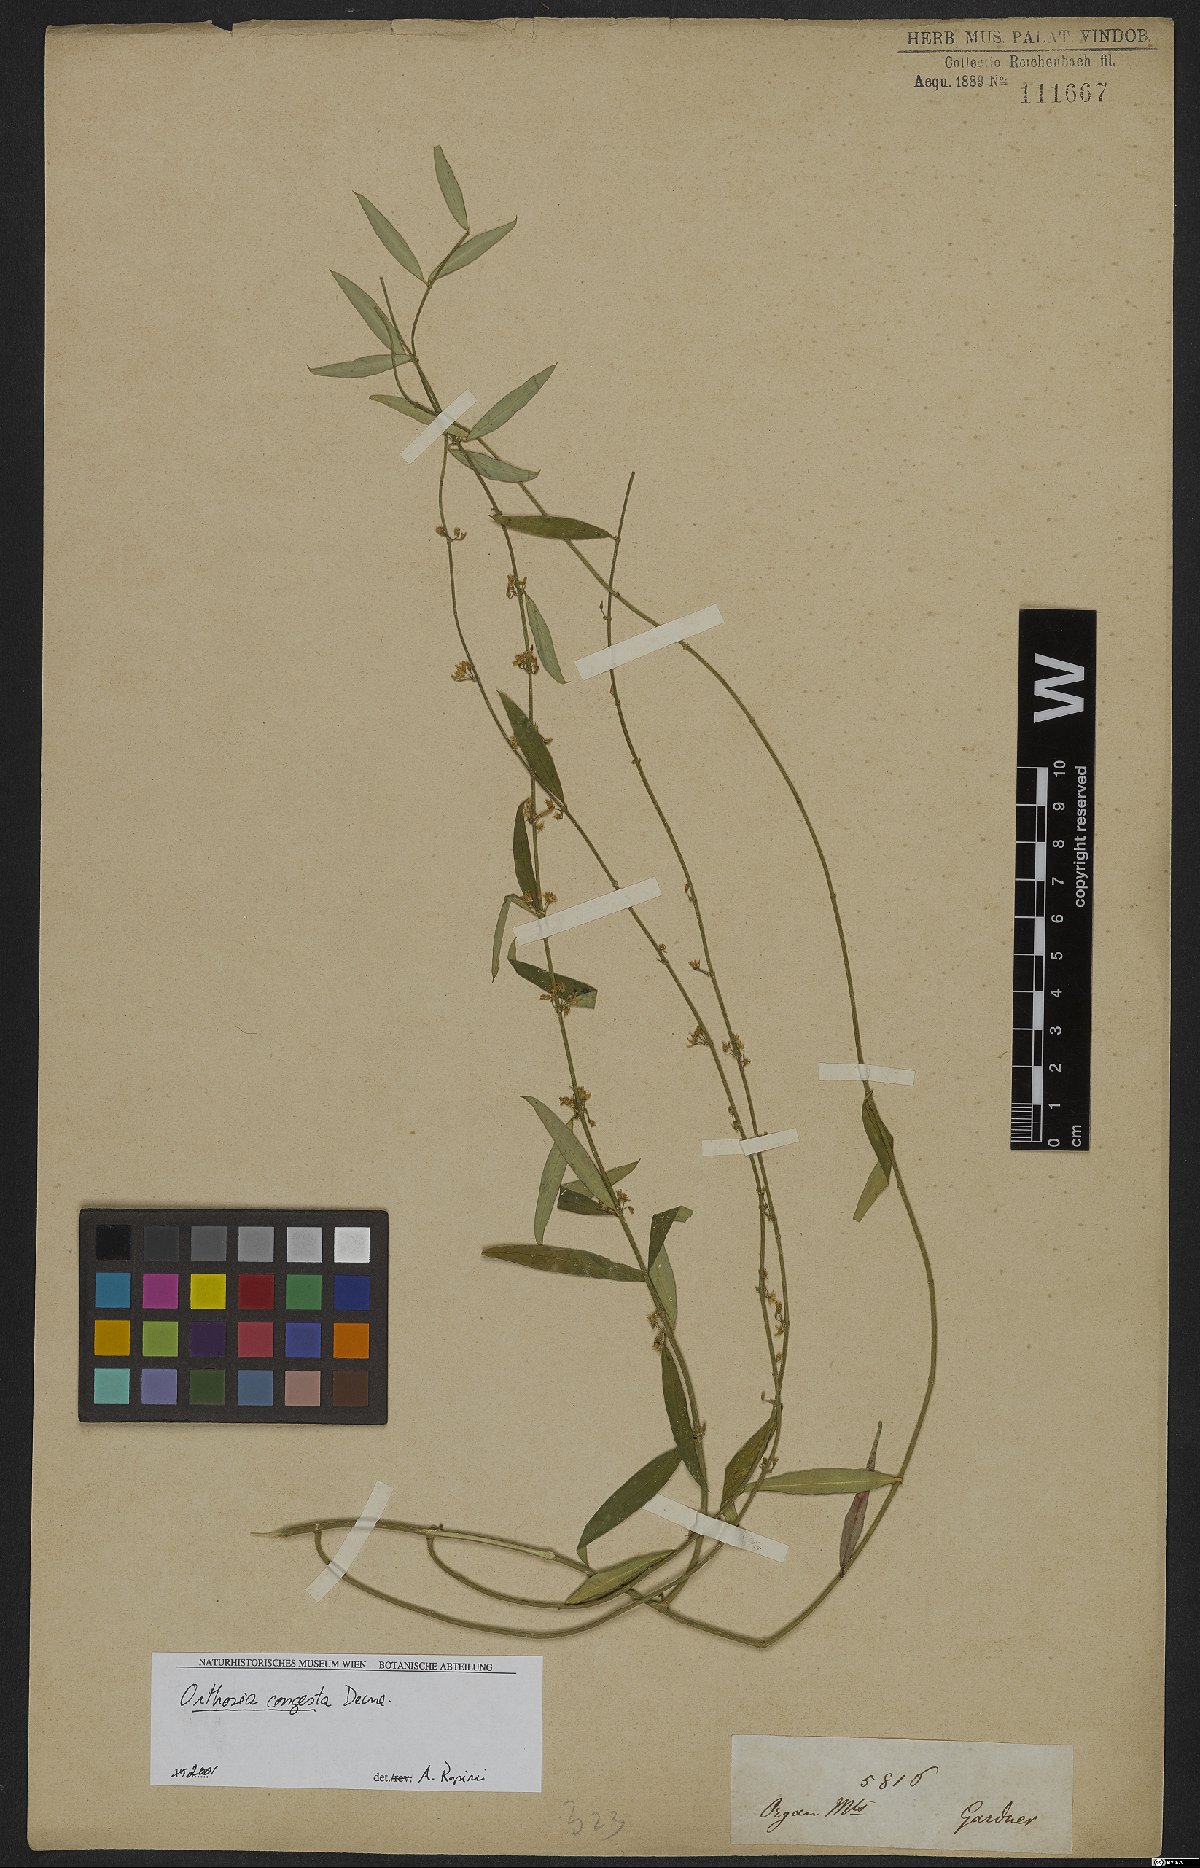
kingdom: Plantae
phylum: Tracheophyta
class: Magnoliopsida
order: Gentianales
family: Apocynaceae
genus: Orthosia
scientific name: Orthosia congesta
